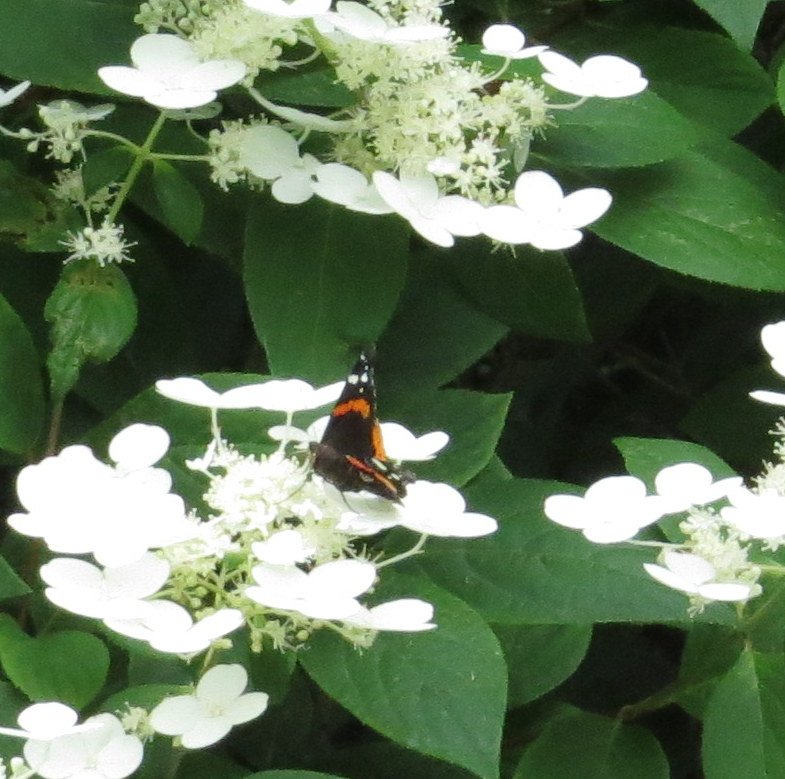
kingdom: Animalia
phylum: Arthropoda
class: Insecta
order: Lepidoptera
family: Nymphalidae
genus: Vanessa
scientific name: Vanessa atalanta
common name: Red Admiral
